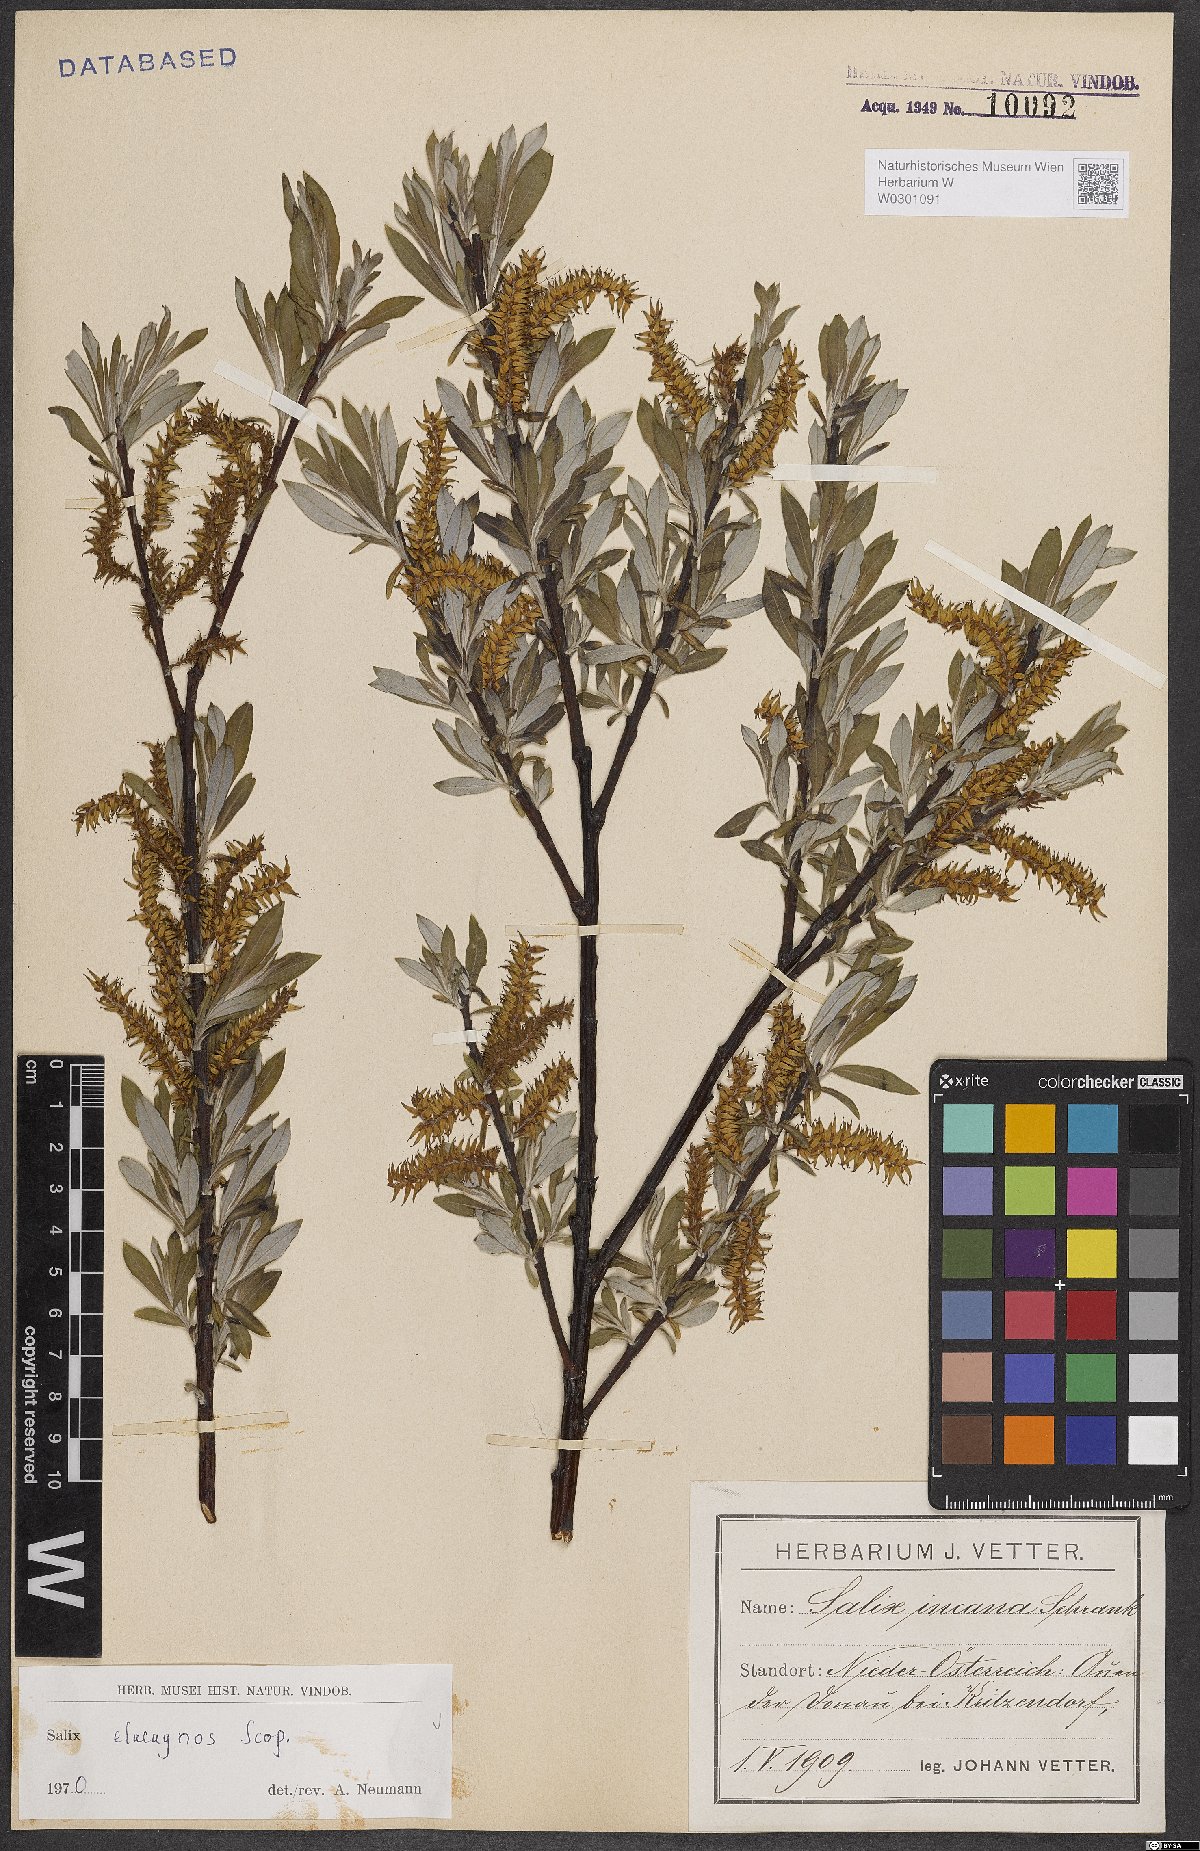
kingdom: Plantae
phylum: Tracheophyta
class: Magnoliopsida
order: Malpighiales
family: Salicaceae
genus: Salix
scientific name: Salix eleagnos
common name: Elaeagnus willow
